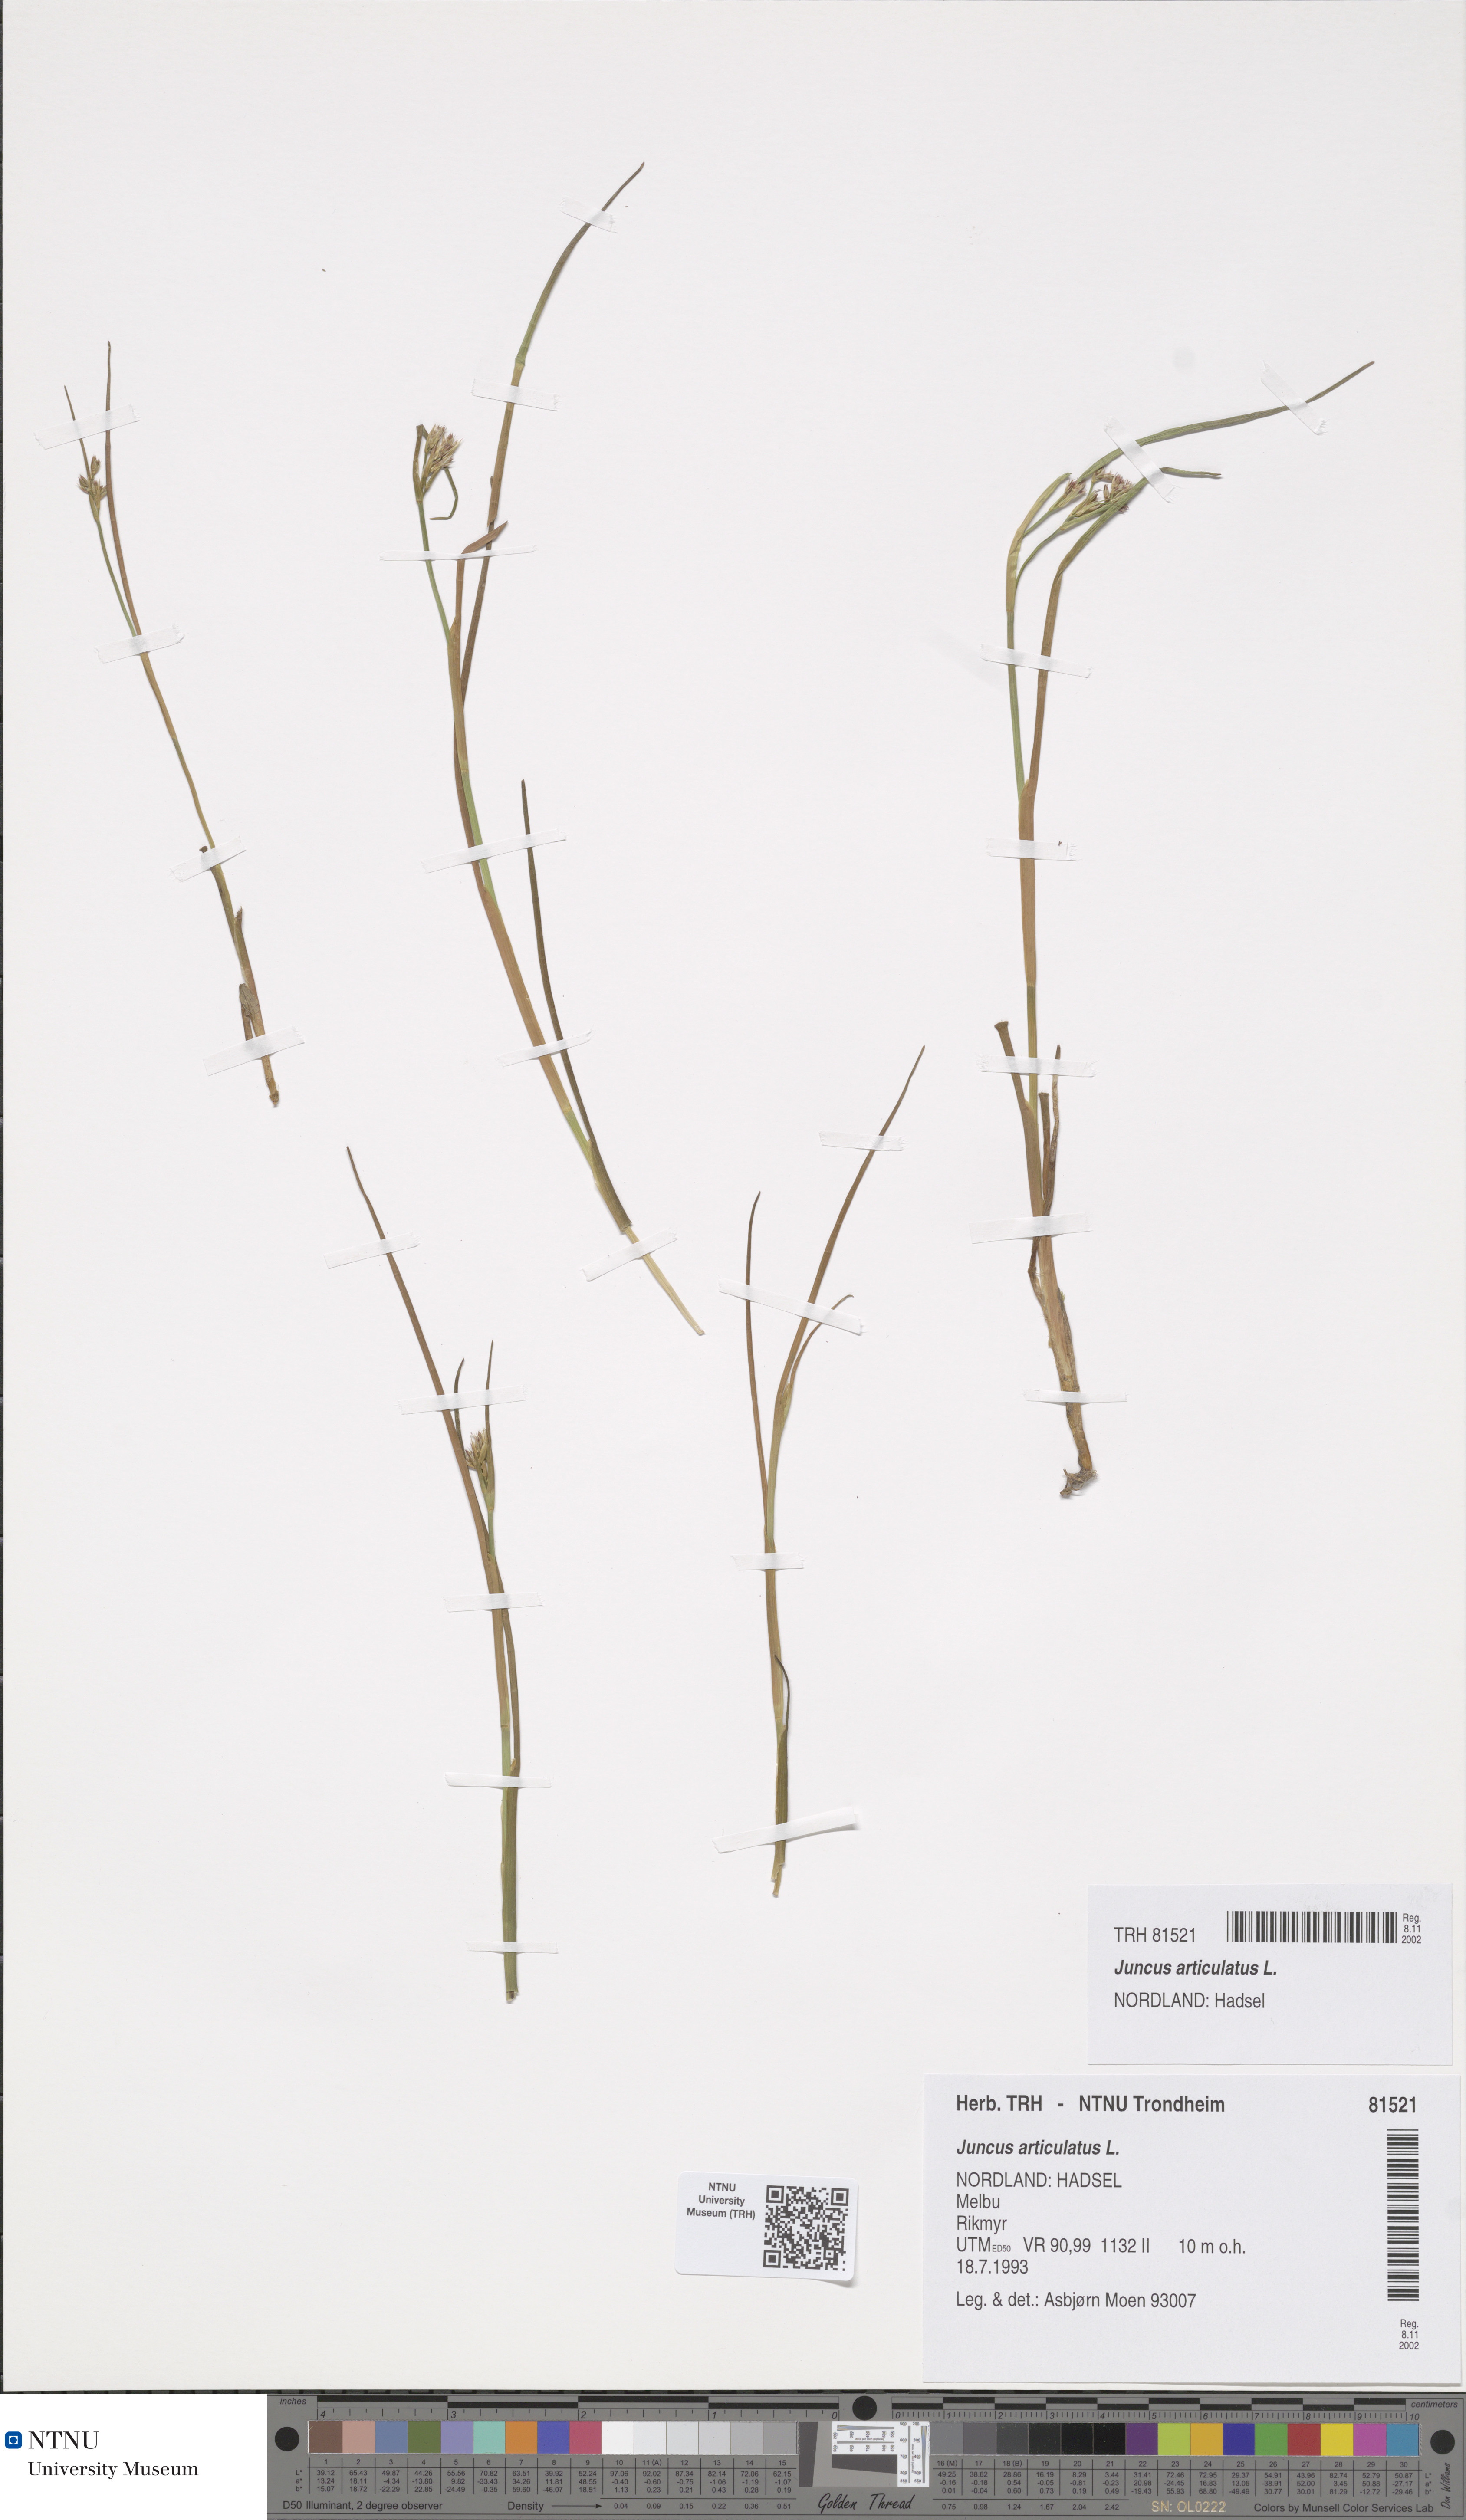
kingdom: Plantae
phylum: Tracheophyta
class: Liliopsida
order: Poales
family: Juncaceae
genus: Juncus
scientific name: Juncus articulatus
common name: Jointed rush
